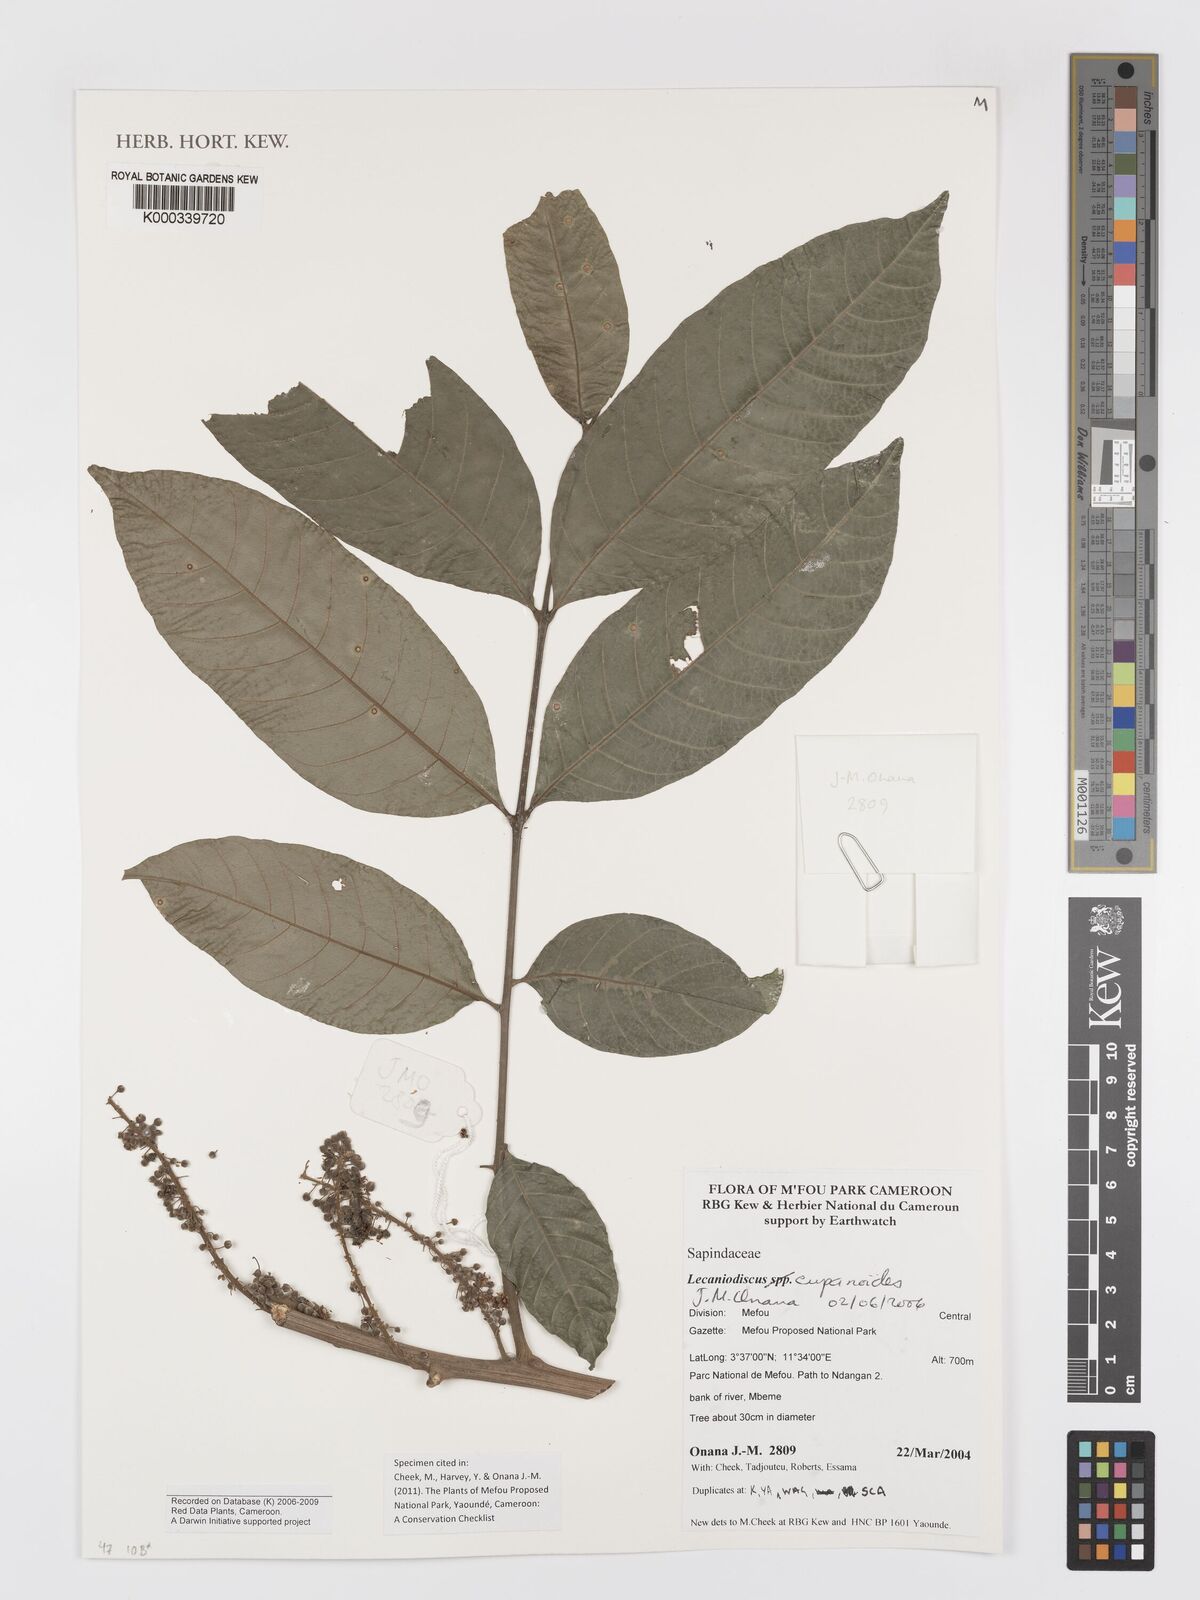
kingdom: Plantae
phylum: Tracheophyta
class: Magnoliopsida
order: Sapindales
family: Sapindaceae
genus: Lecaniodiscus
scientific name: Lecaniodiscus cupanioides
